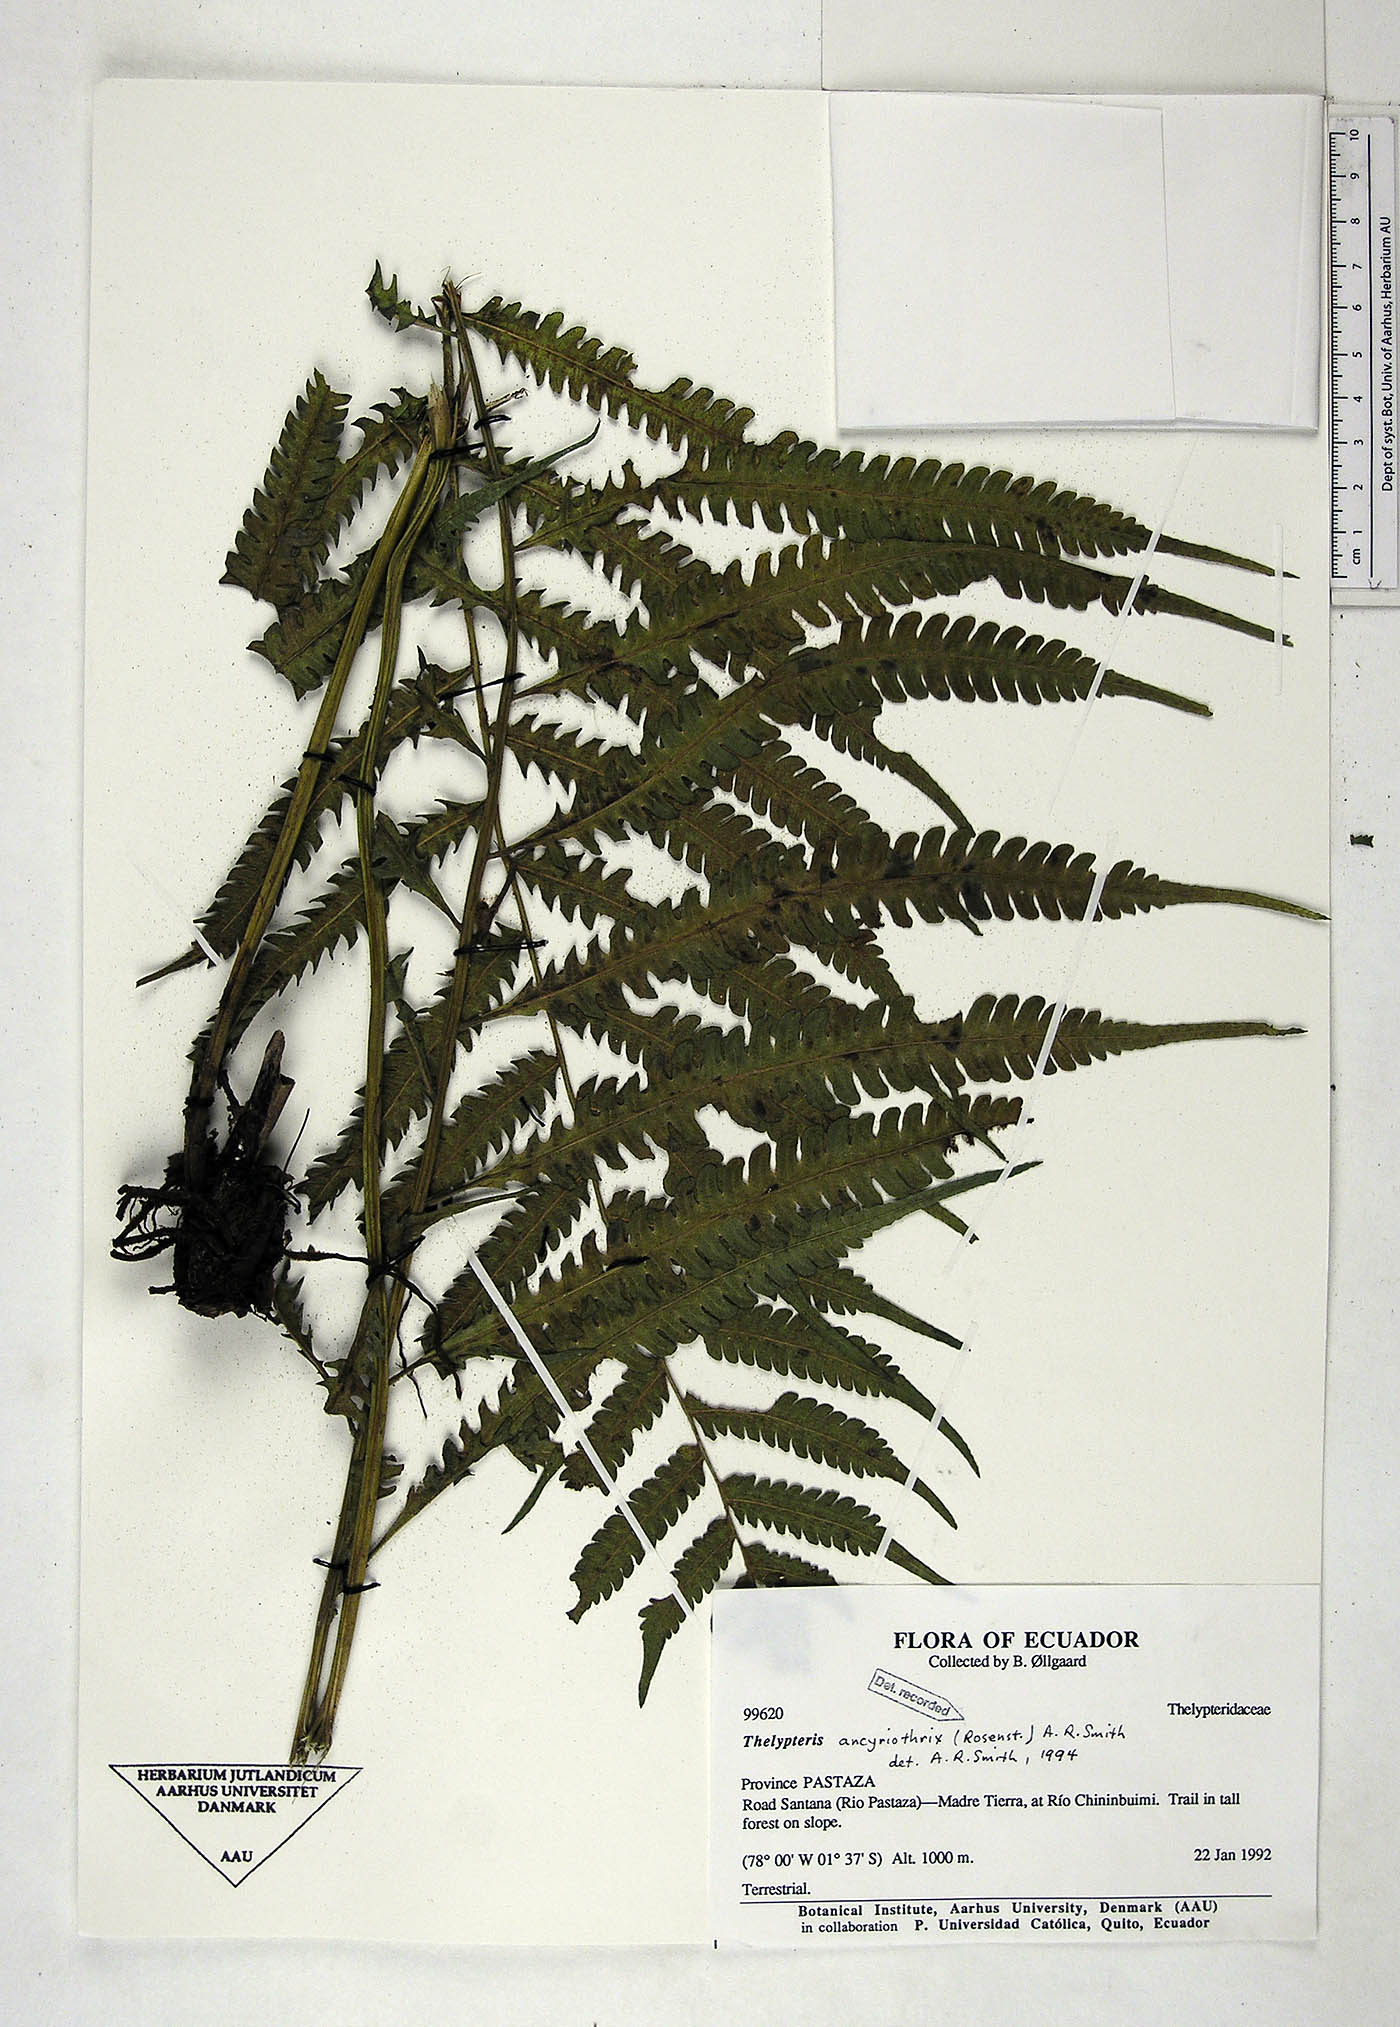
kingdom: Plantae
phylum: Tracheophyta
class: Polypodiopsida
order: Polypodiales
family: Thelypteridaceae
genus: Goniopteris
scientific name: Goniopteris ancyriothrix
